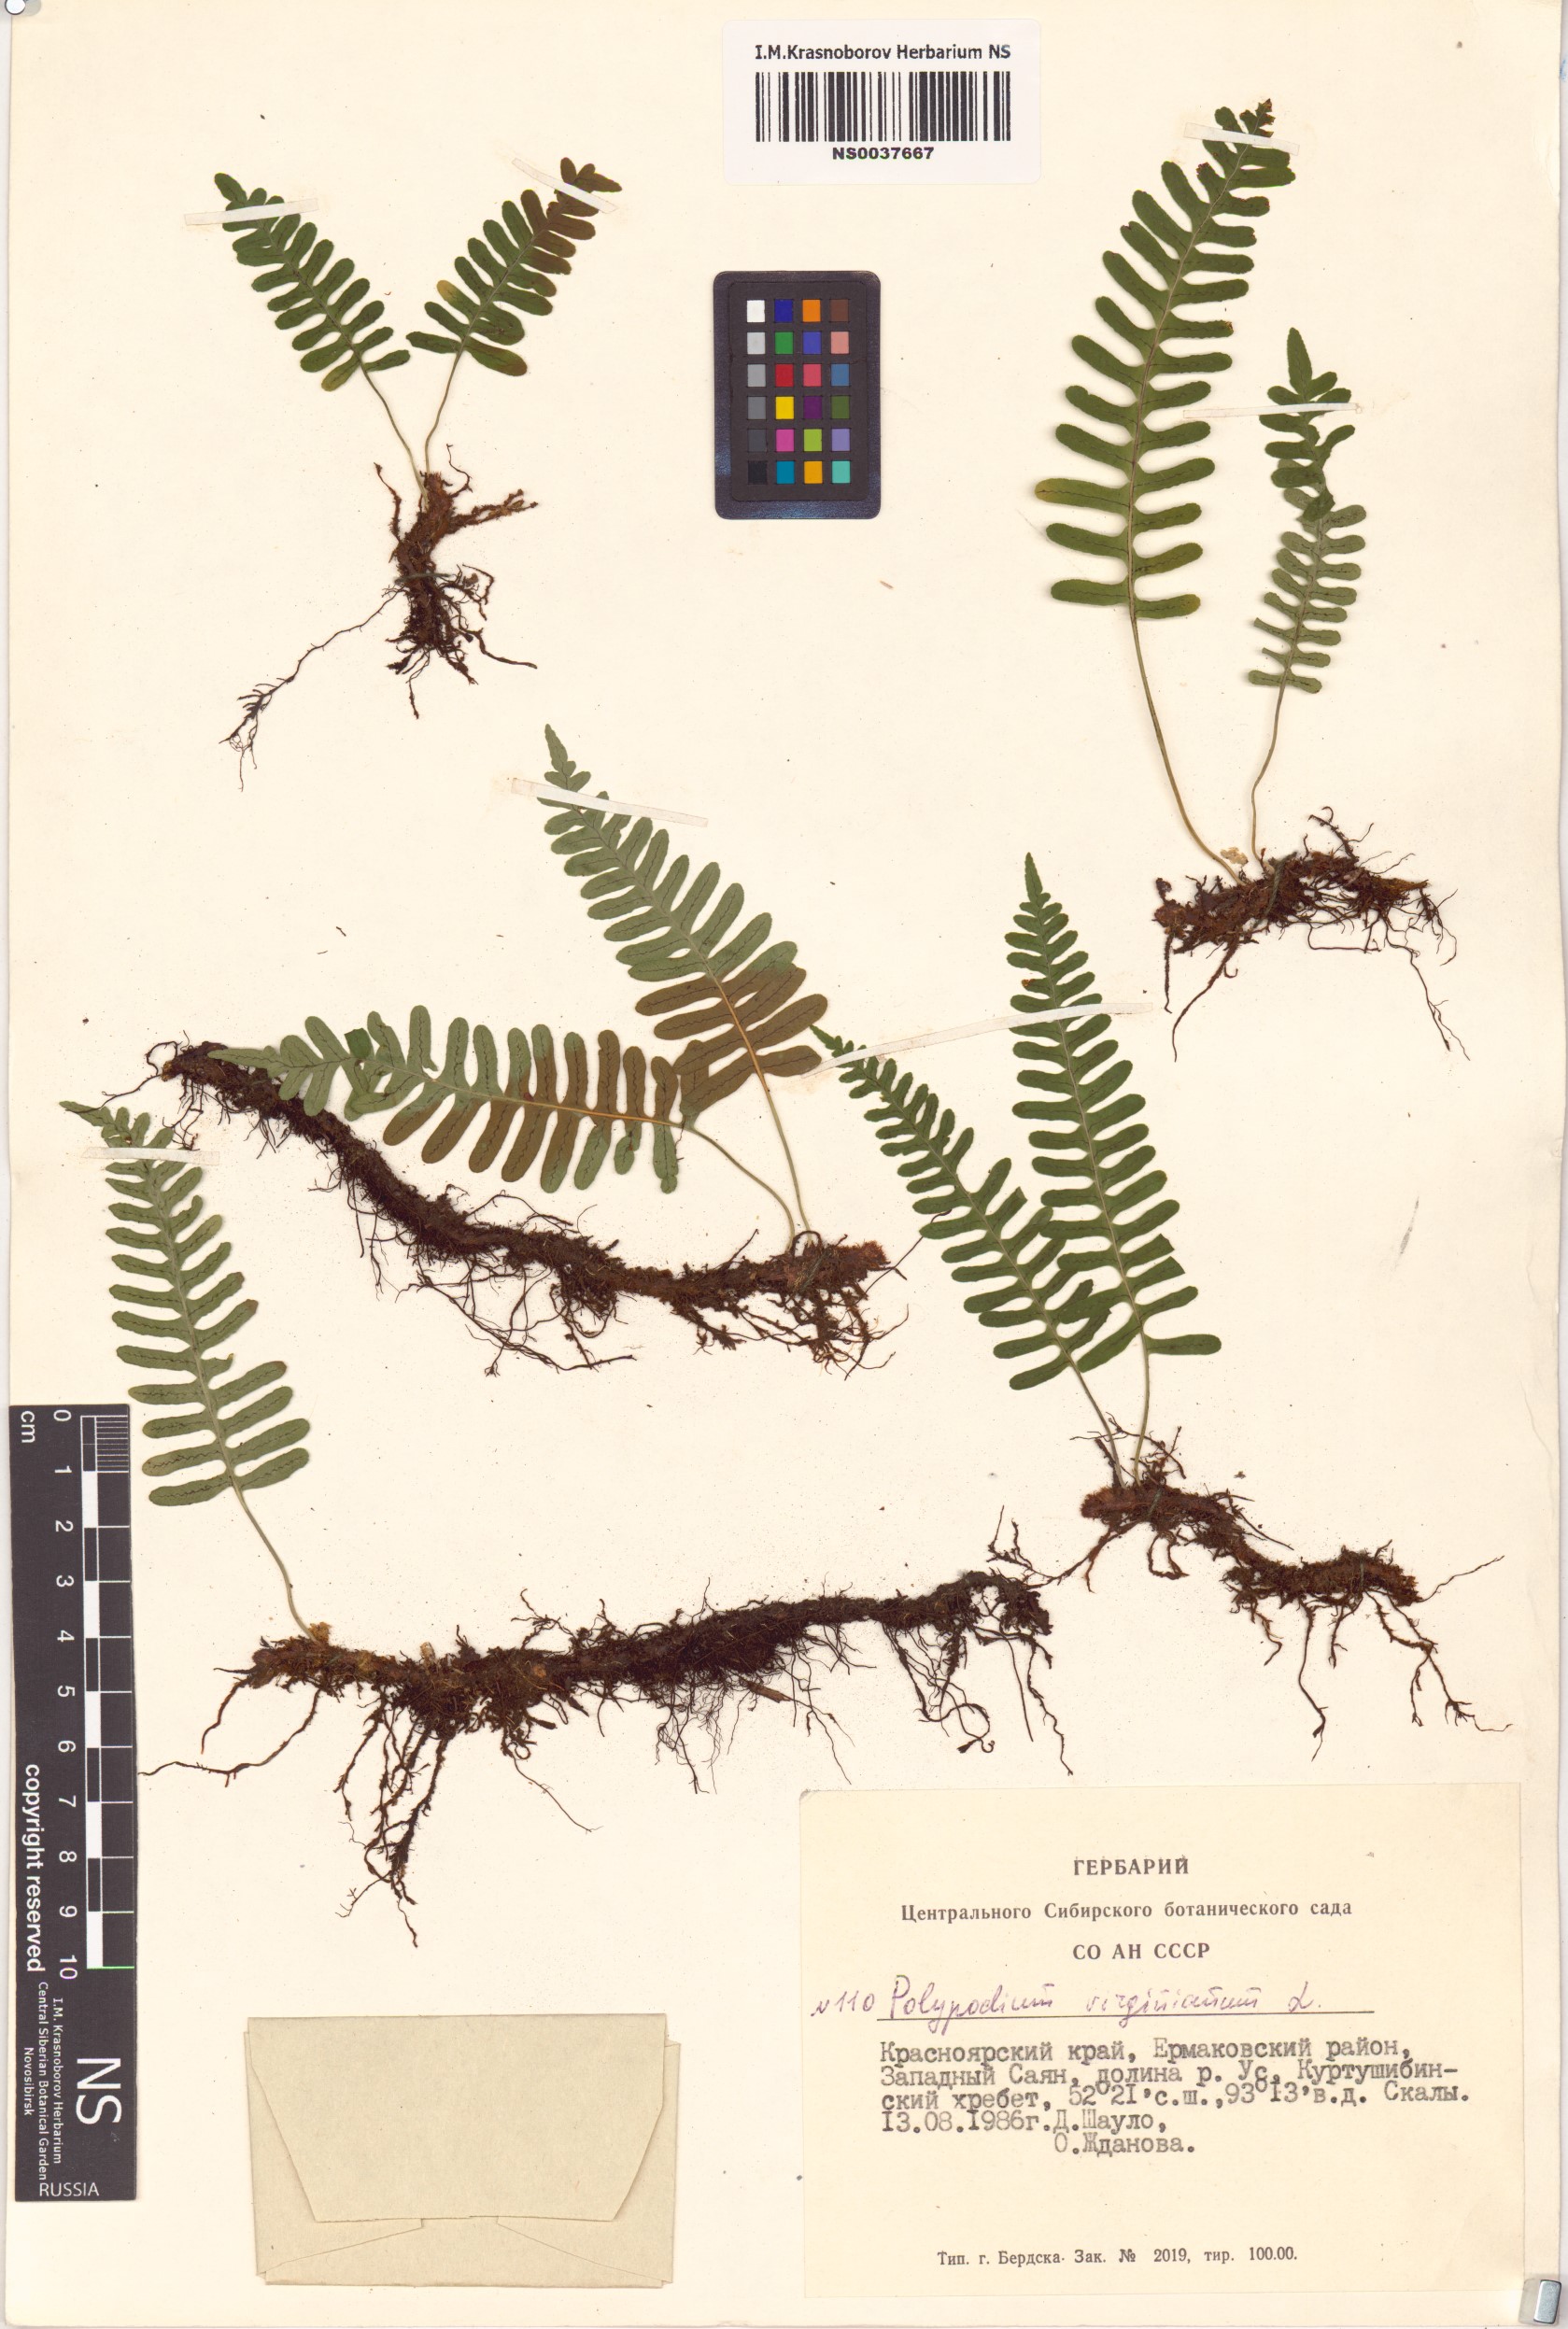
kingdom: Plantae
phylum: Tracheophyta
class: Polypodiopsida
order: Polypodiales
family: Polypodiaceae
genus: Polypodium
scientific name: Polypodium virginianum
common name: American wall fern
